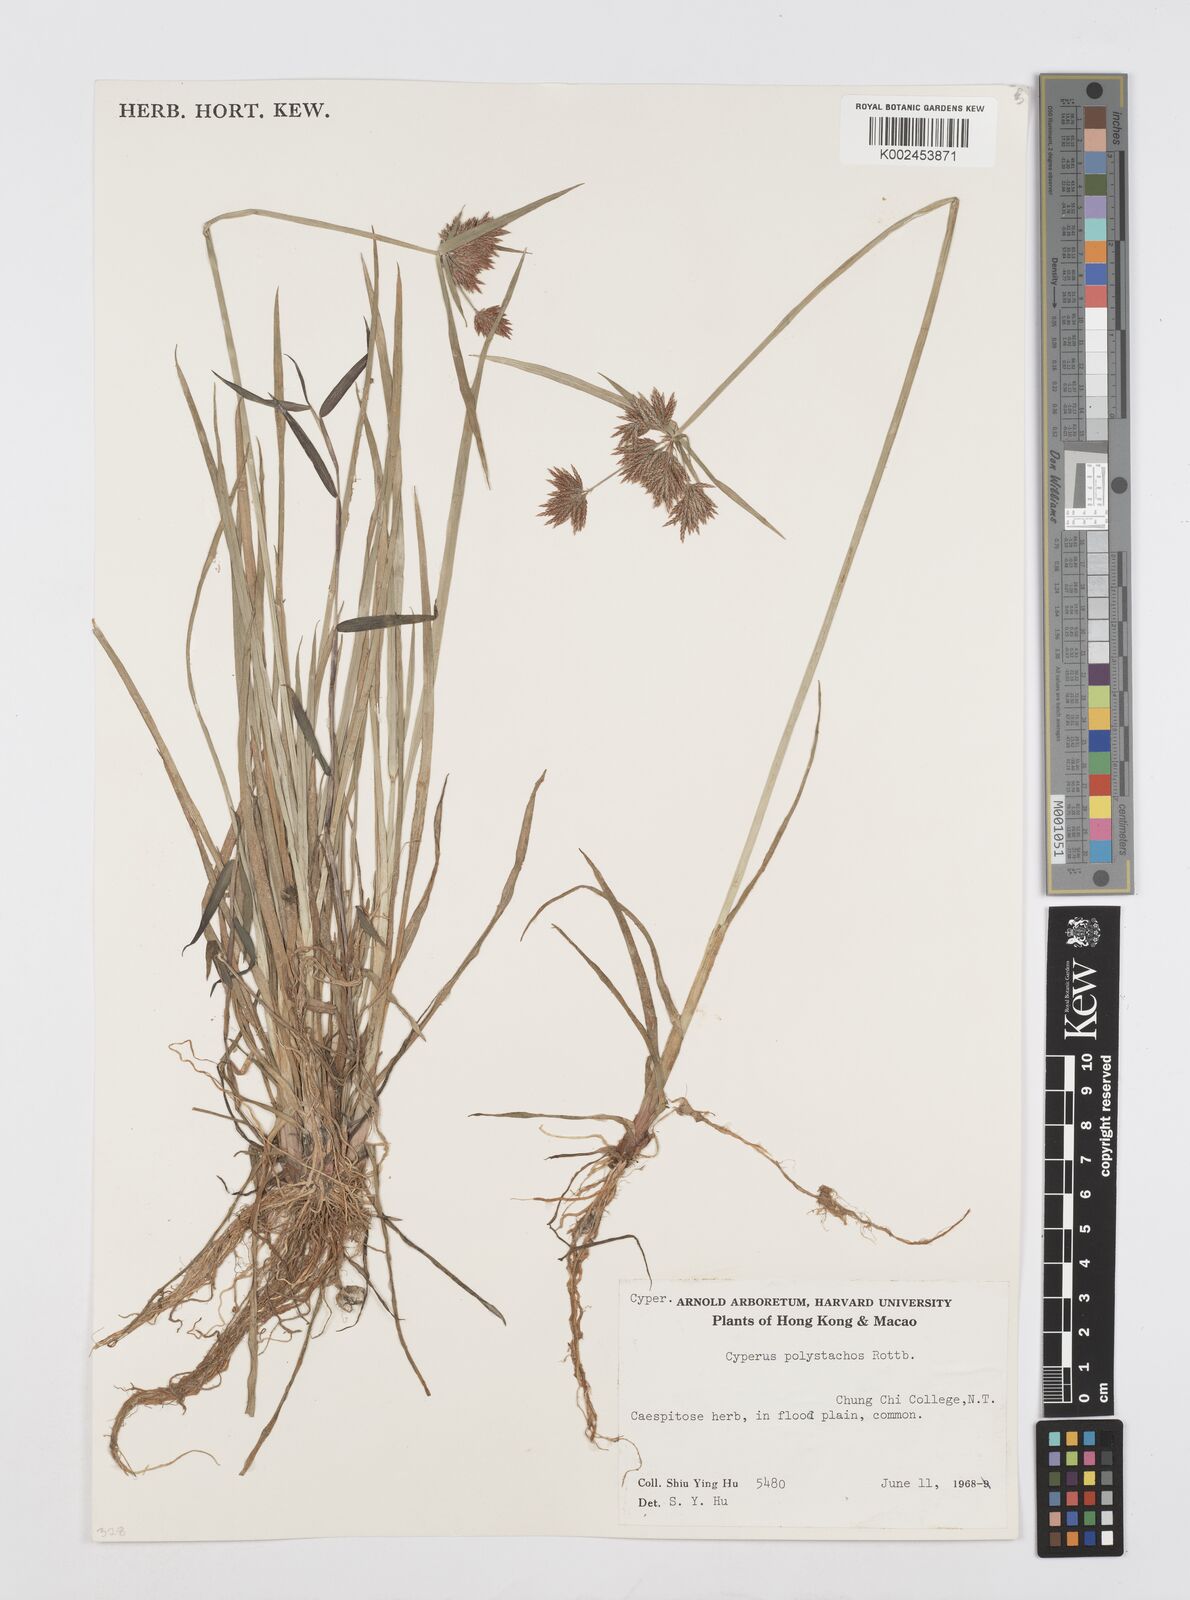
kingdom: Plantae
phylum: Tracheophyta
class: Liliopsida
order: Poales
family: Cyperaceae
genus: Cyperus
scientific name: Cyperus polystachyos
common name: Bunchy flat sedge
